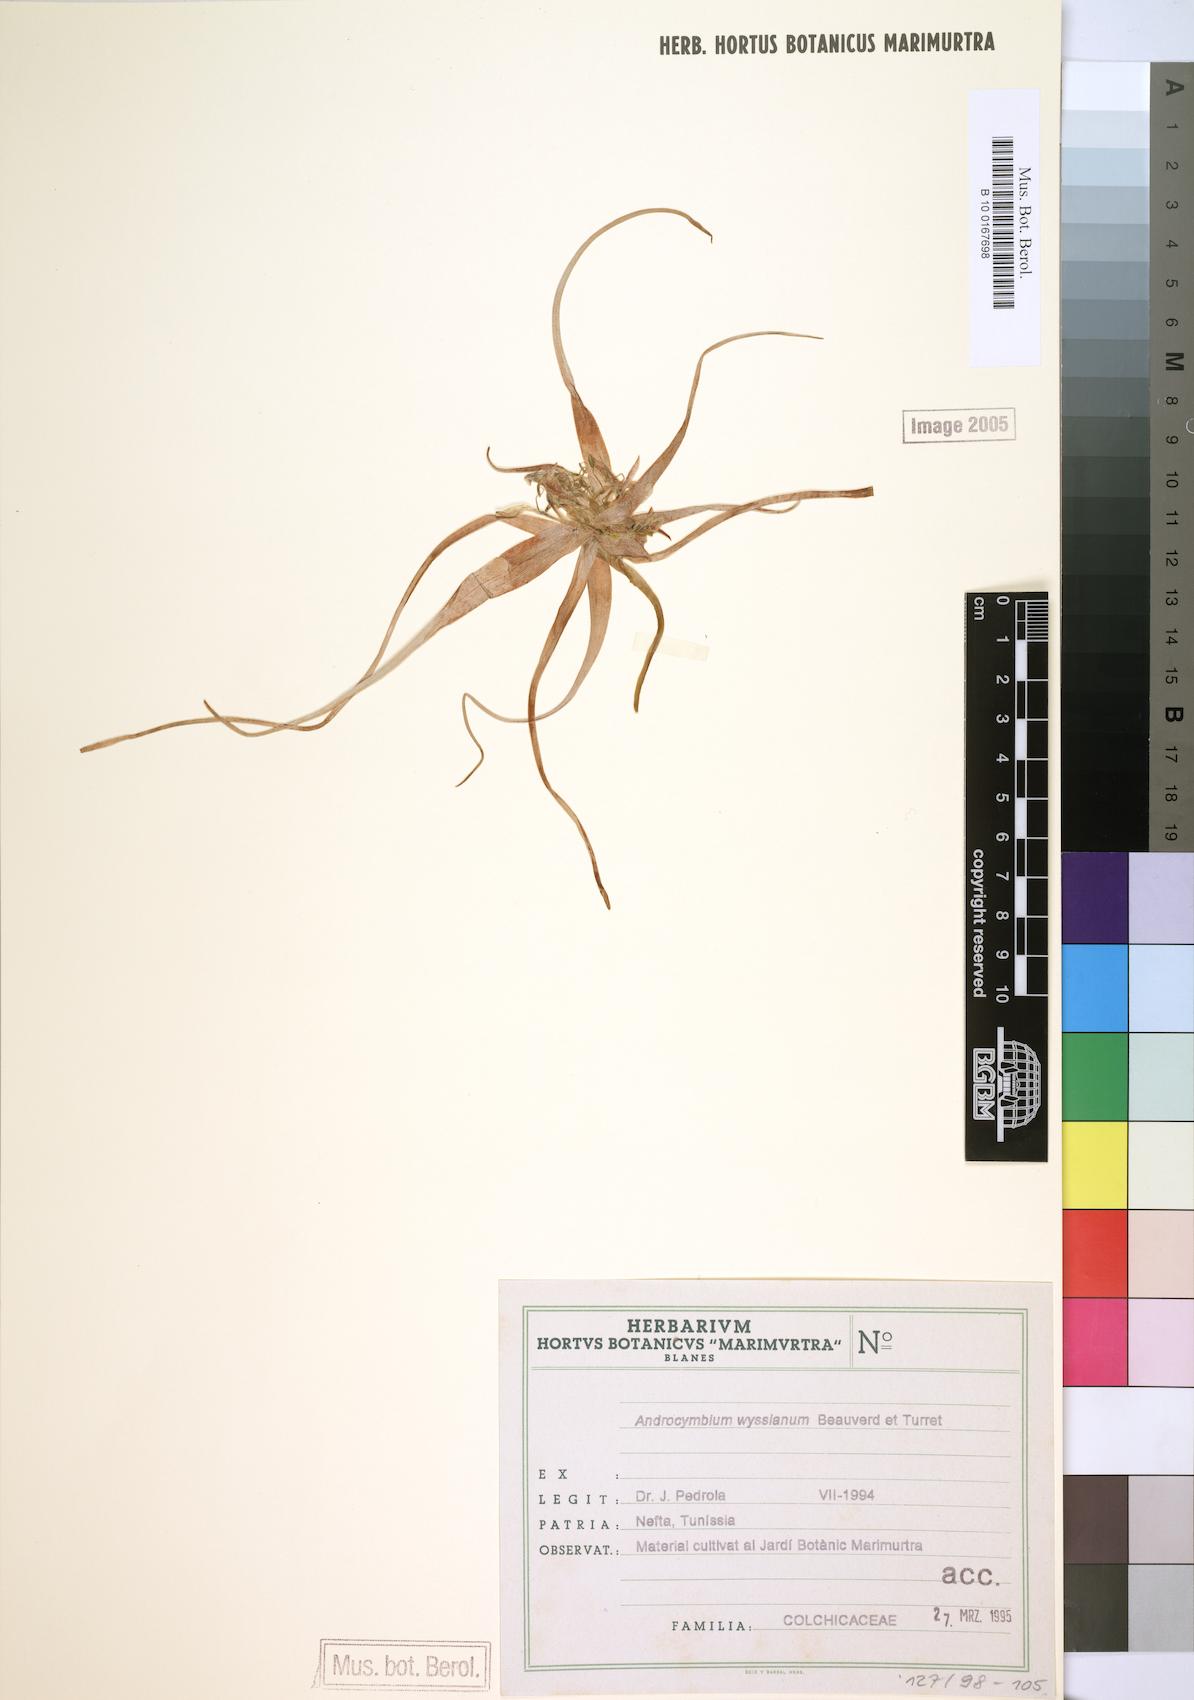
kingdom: Plantae
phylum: Tracheophyta
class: Liliopsida
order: Liliales
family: Colchicaceae
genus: Colchicum
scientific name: Colchicum gramineum
